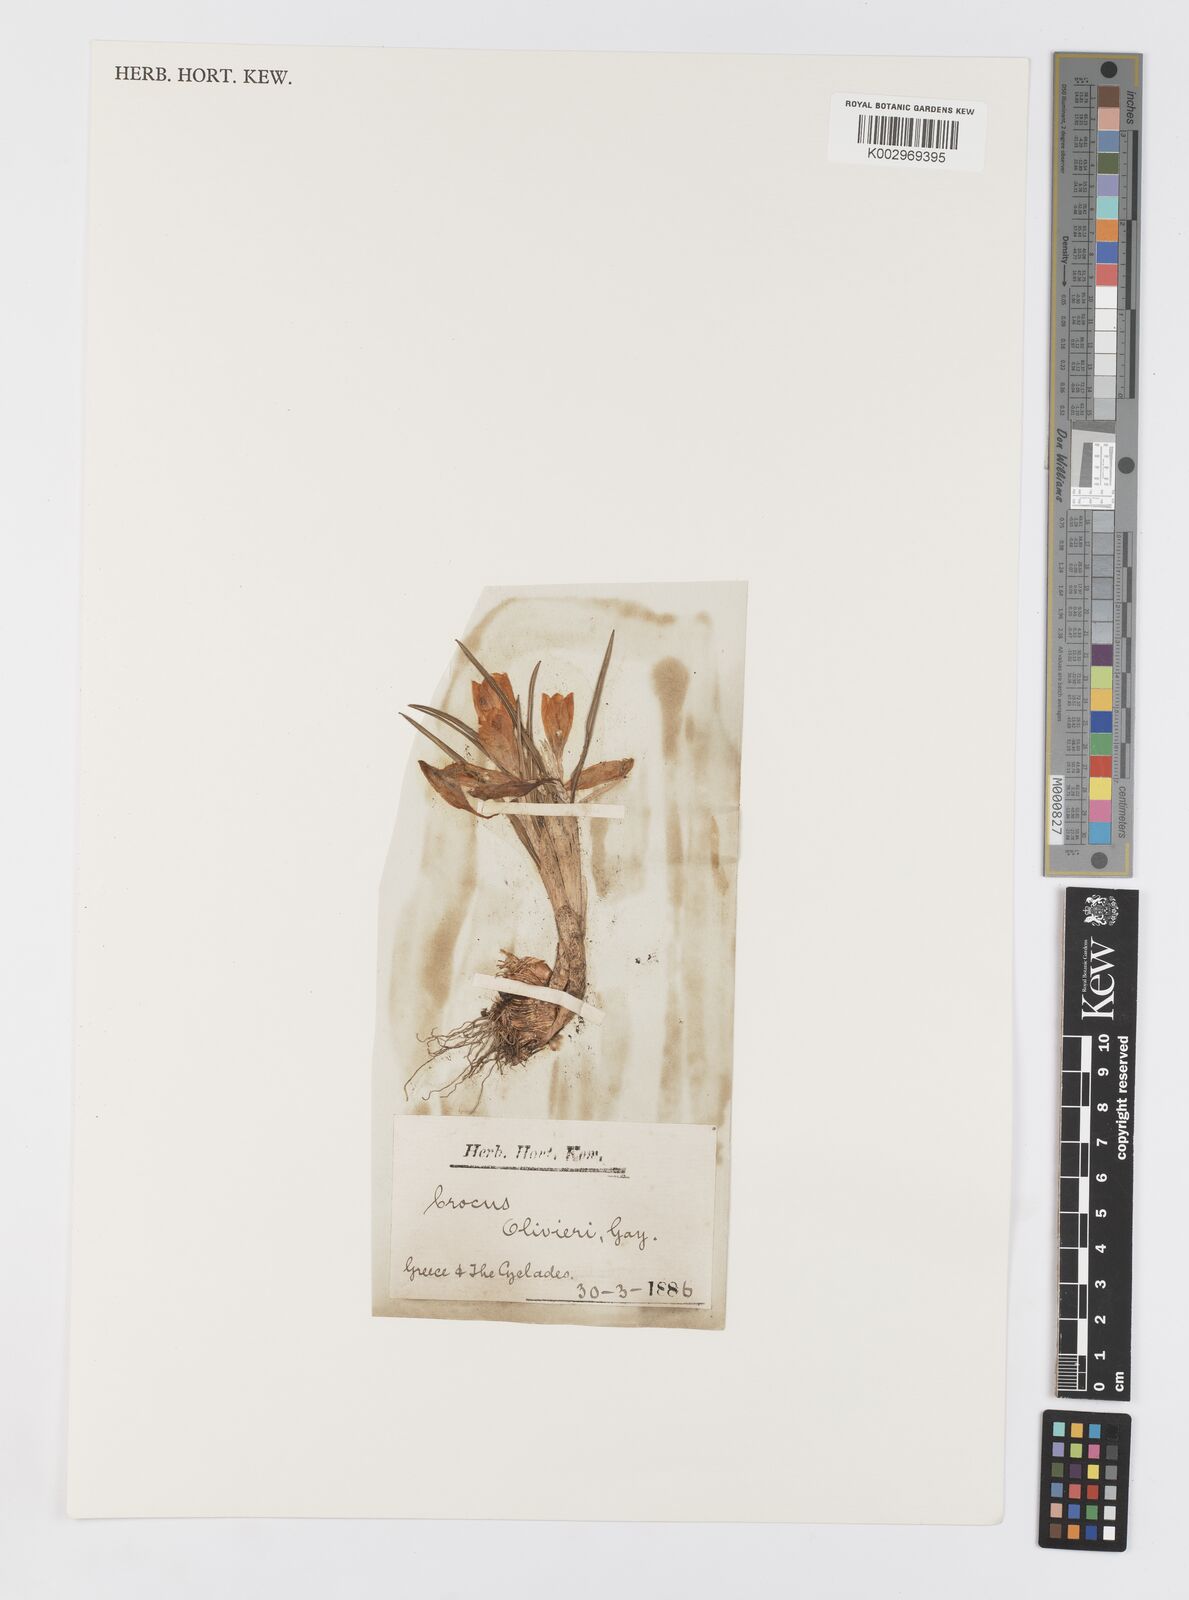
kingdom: Plantae
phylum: Tracheophyta
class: Liliopsida
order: Asparagales
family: Iridaceae
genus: Crocus
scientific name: Crocus olivieri
